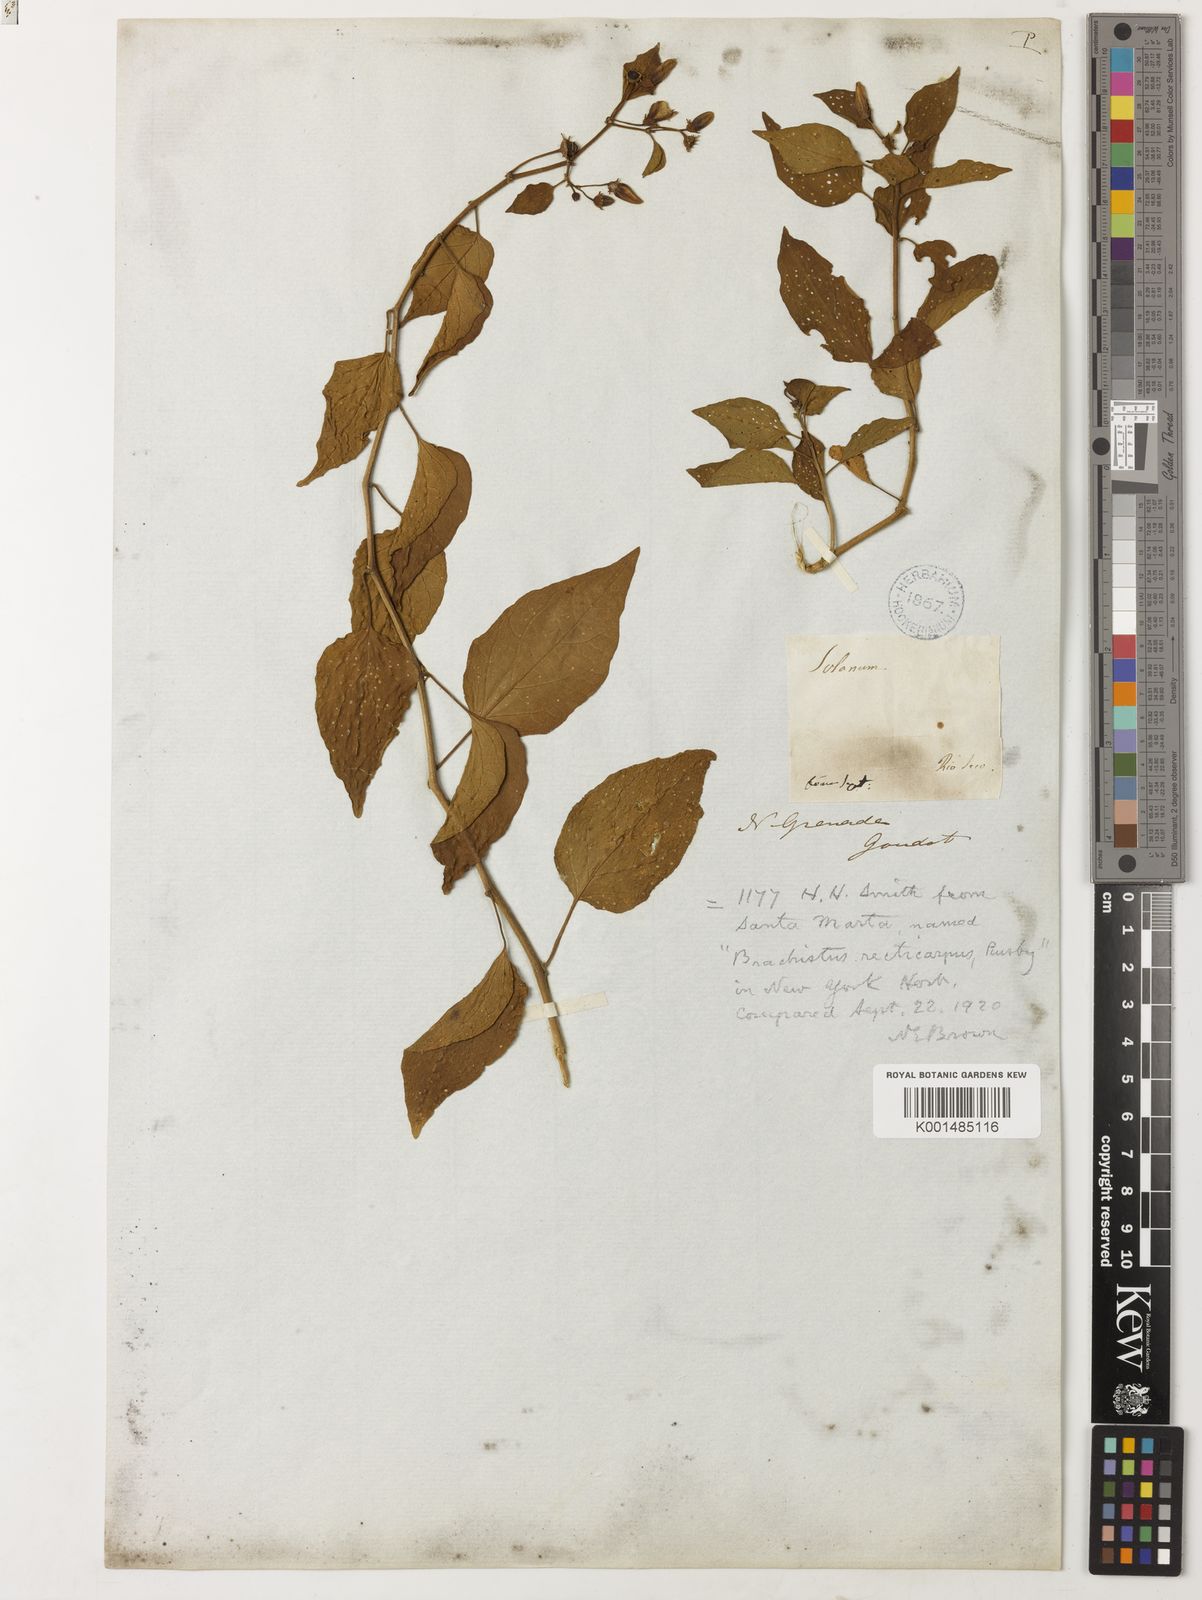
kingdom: Plantae
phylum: Tracheophyta
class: Magnoliopsida
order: Solanales
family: Solanaceae
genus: Lycianthes
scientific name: Lycianthes scandens
